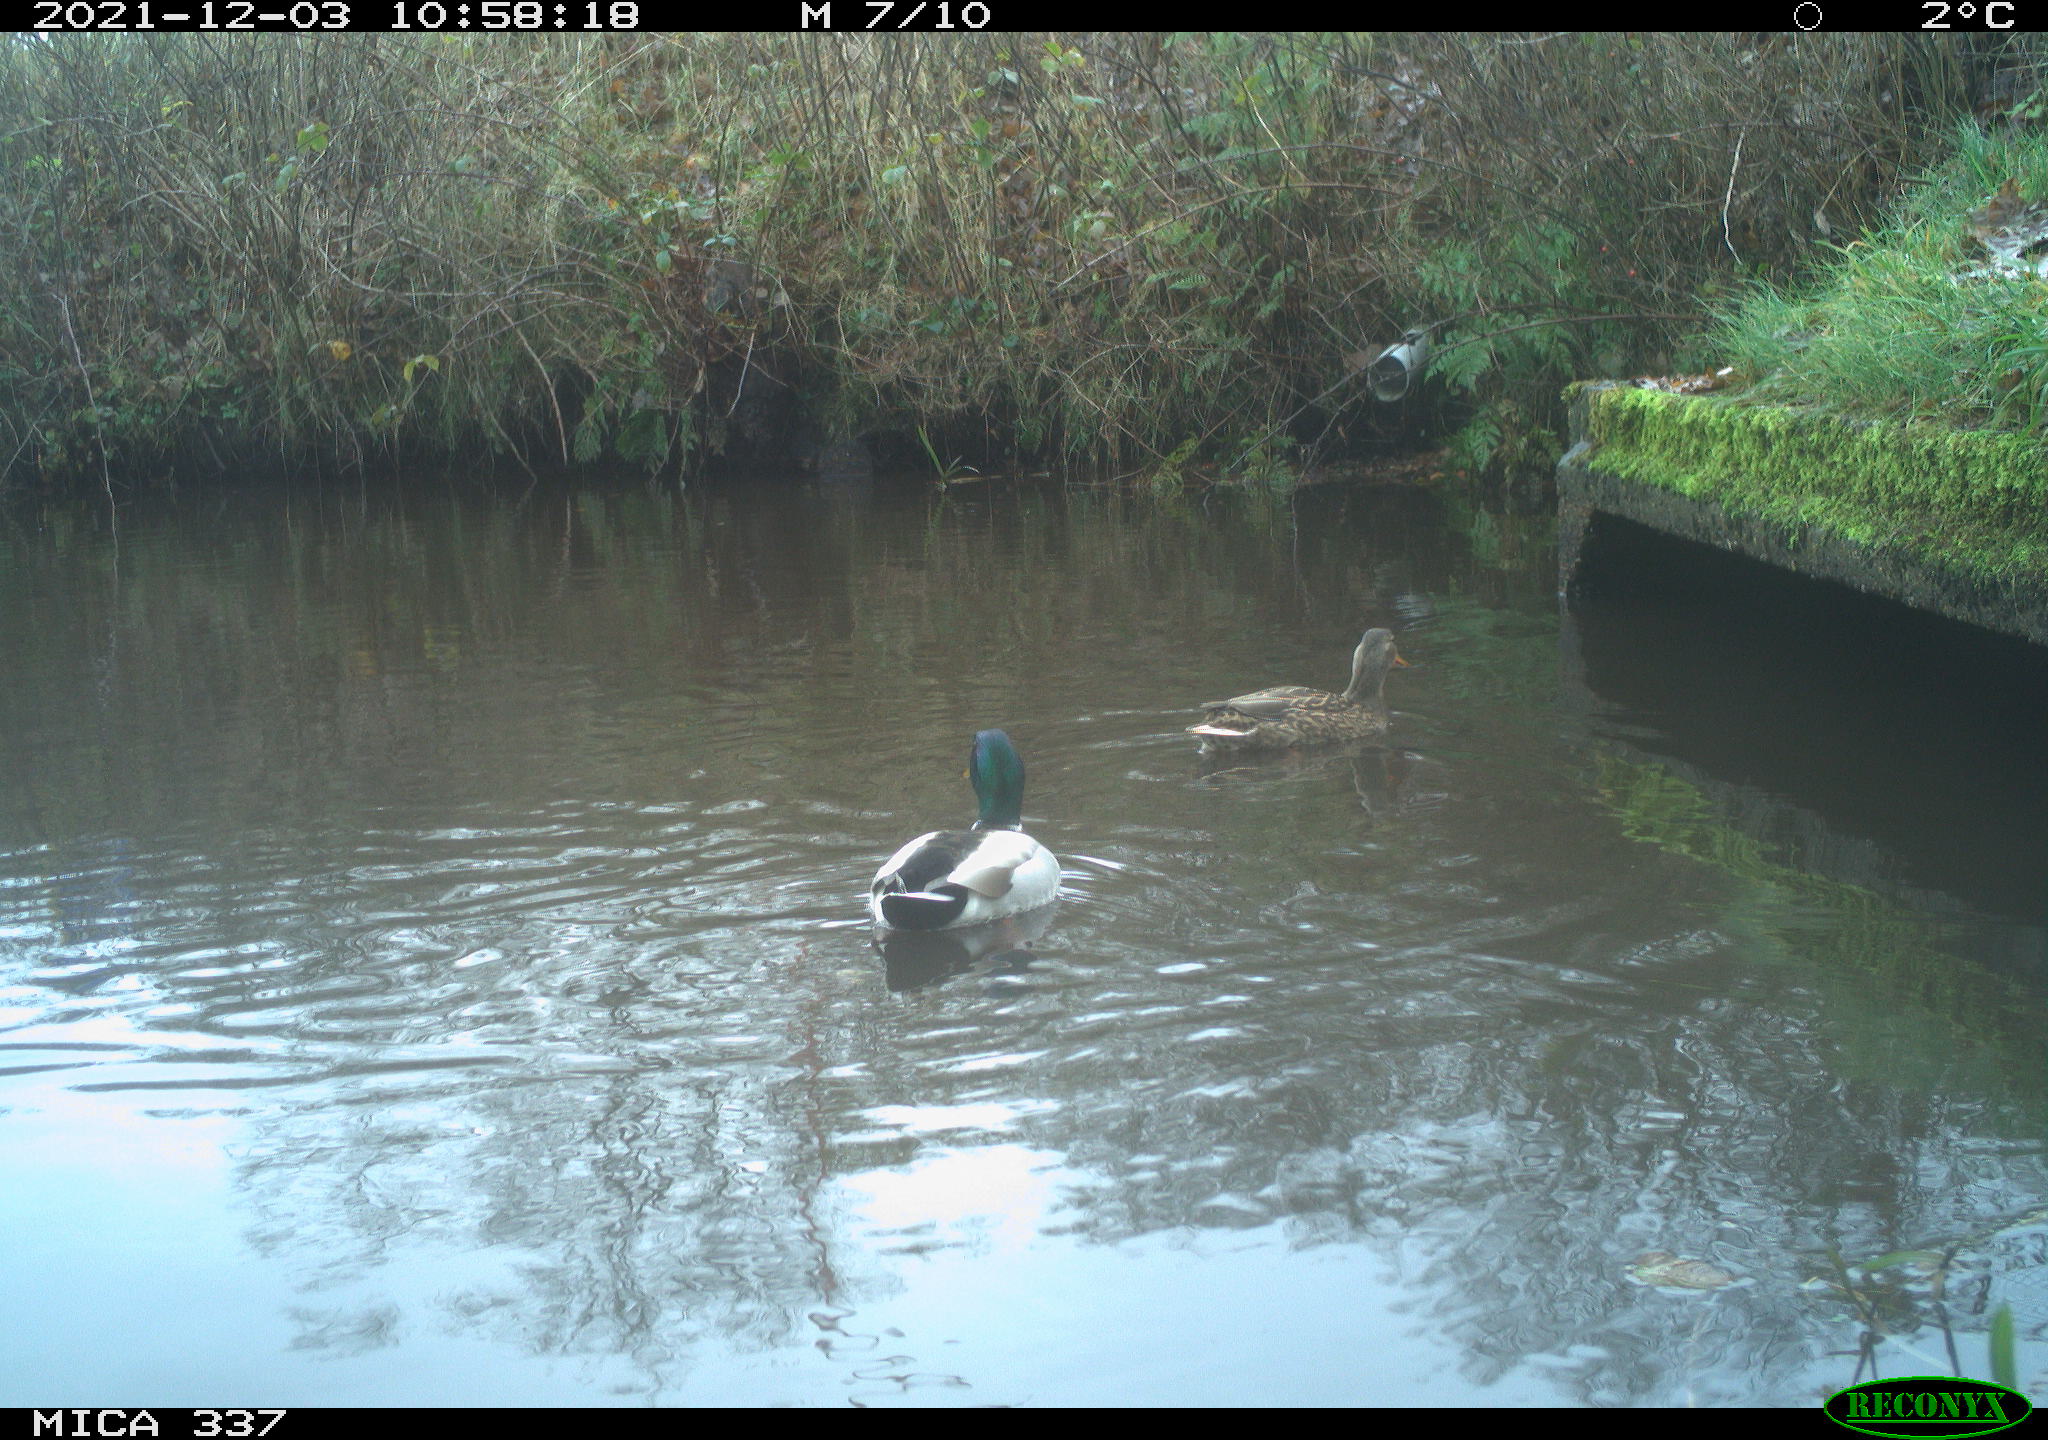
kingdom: Animalia
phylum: Chordata
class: Aves
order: Anseriformes
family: Anatidae
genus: Anas
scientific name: Anas platyrhynchos
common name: Mallard
